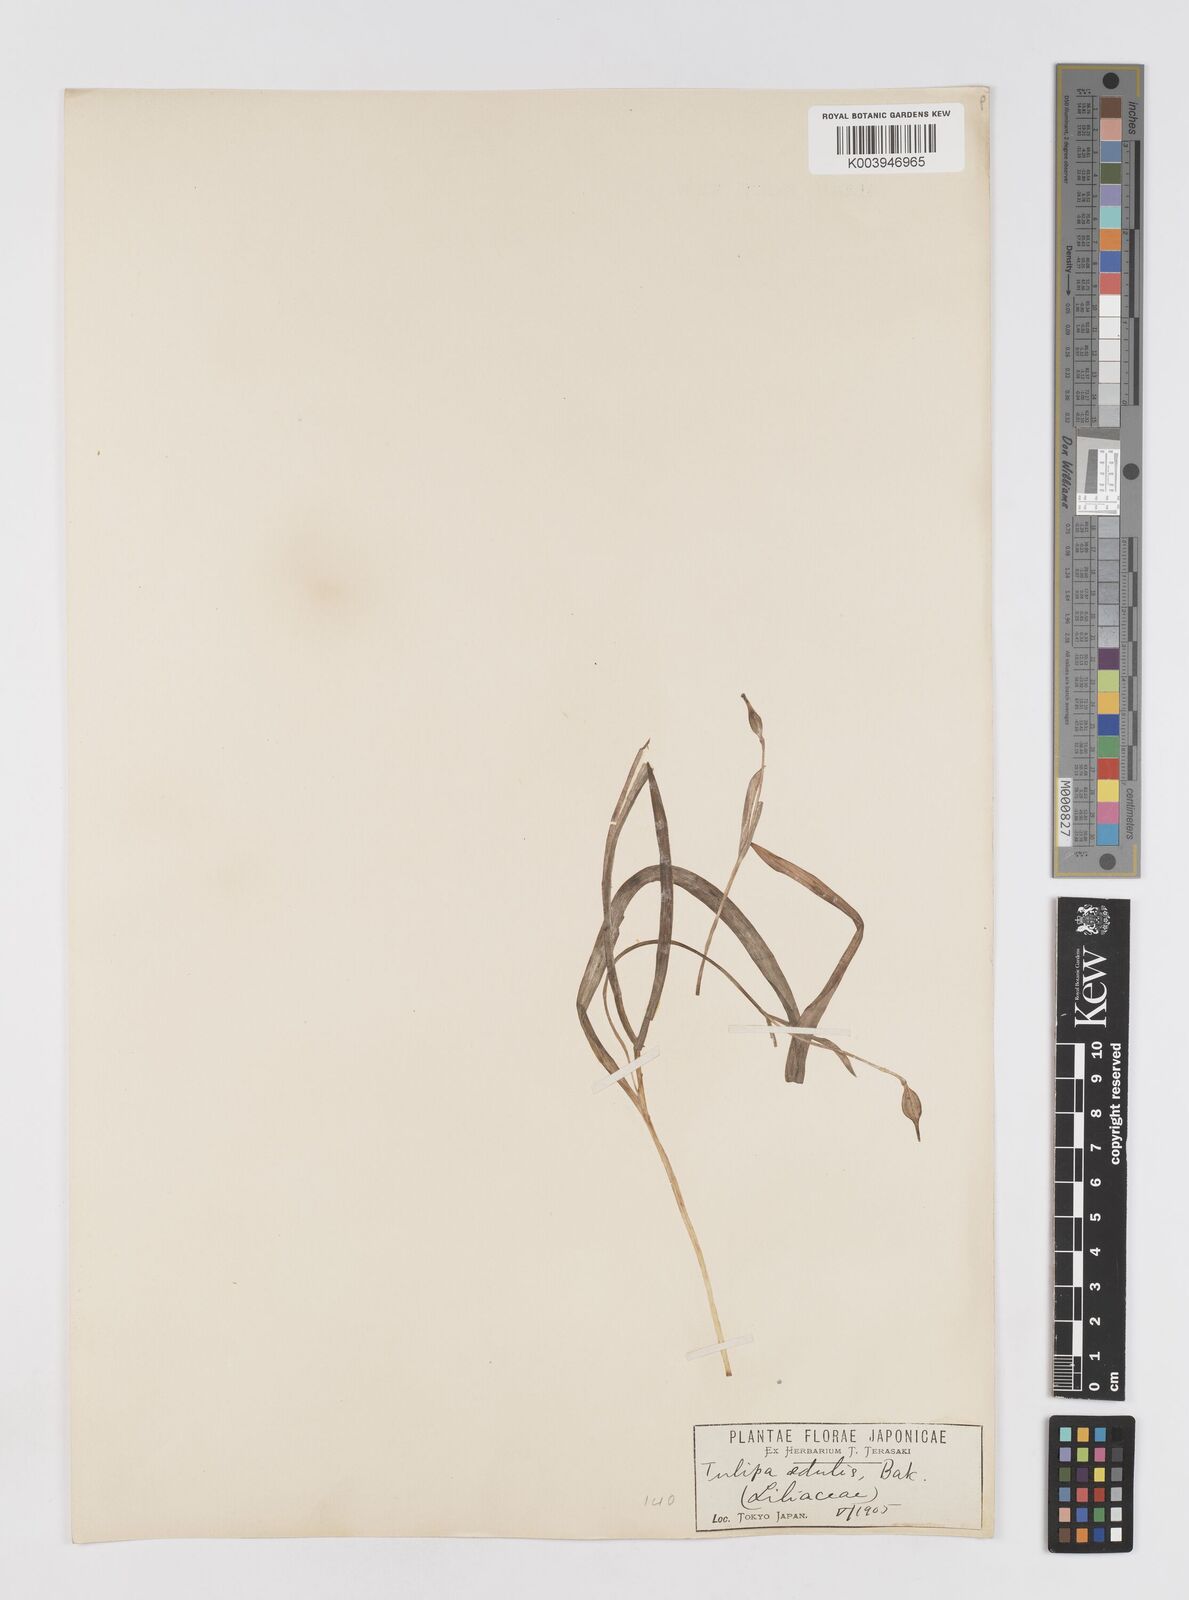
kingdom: Plantae
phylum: Tracheophyta
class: Liliopsida
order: Liliales
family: Liliaceae
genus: Amana
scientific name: Amana edulis
